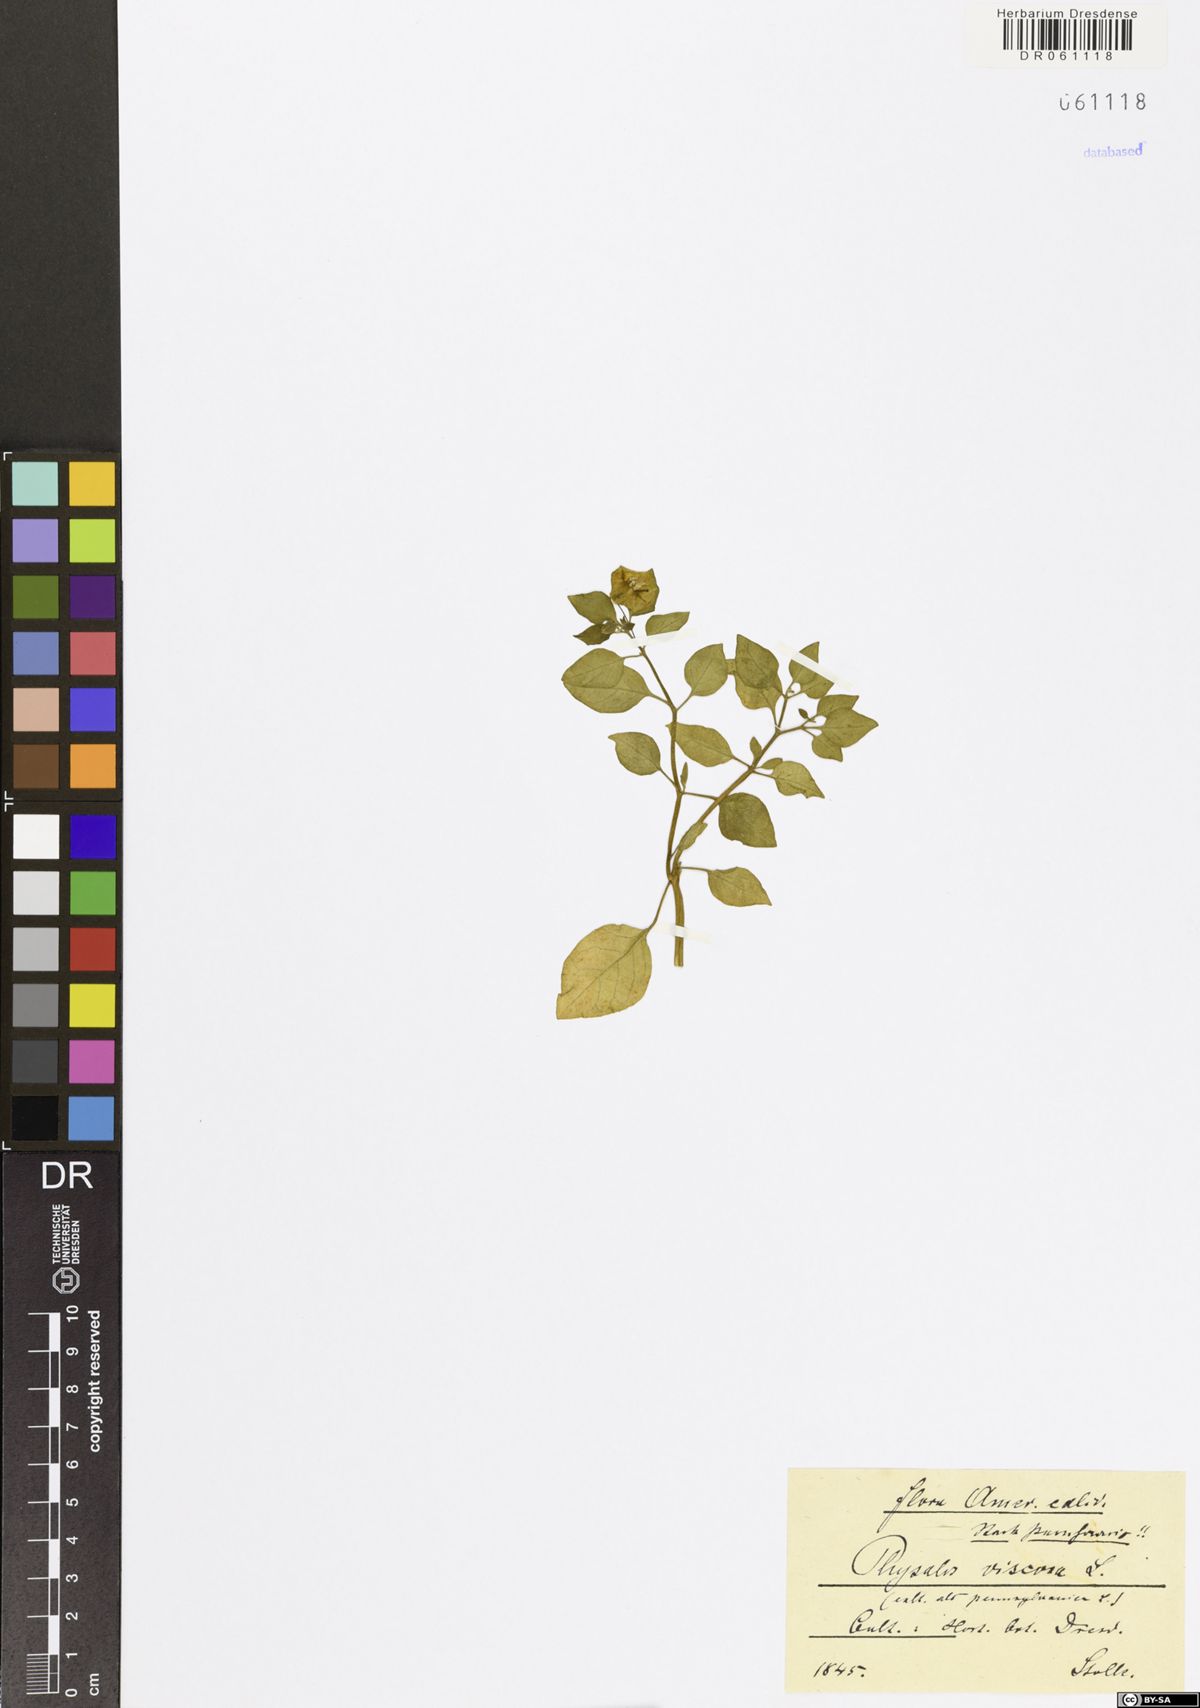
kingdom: Plantae
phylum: Tracheophyta
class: Magnoliopsida
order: Solanales
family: Solanaceae
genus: Physalis
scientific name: Physalis viscosa
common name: Stellate ground-cherry
